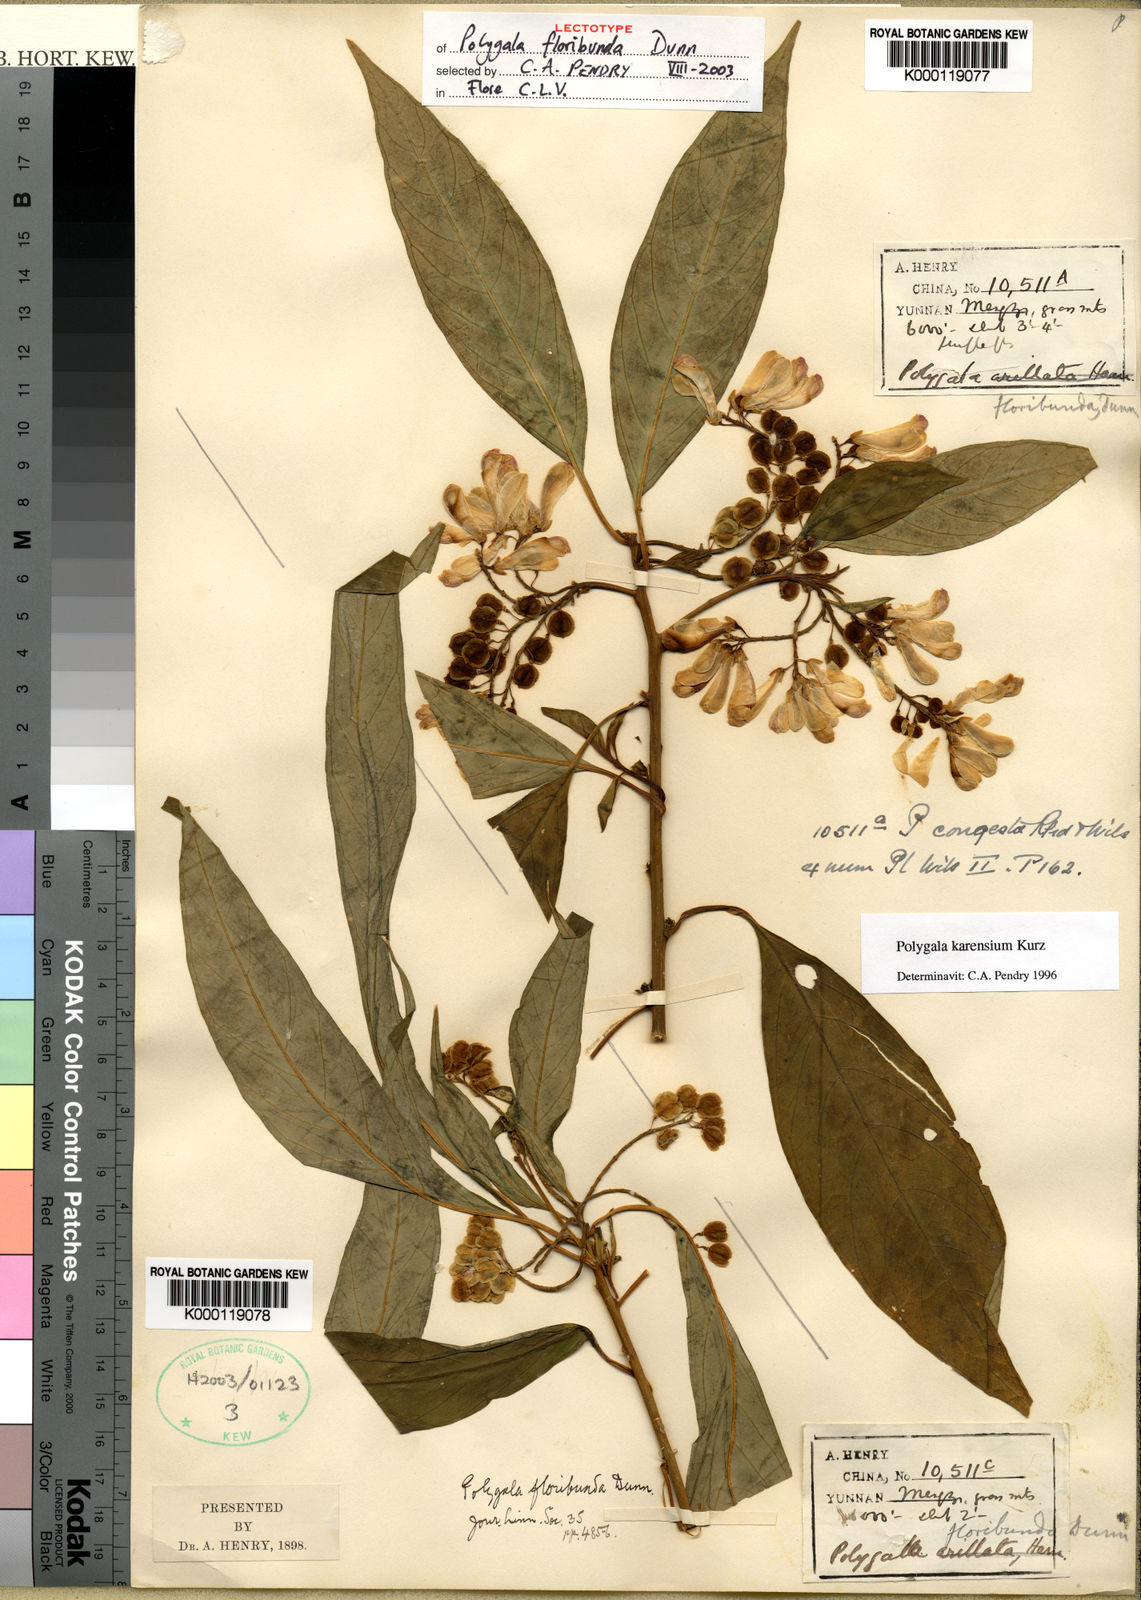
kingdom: Plantae
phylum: Tracheophyta
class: Magnoliopsida
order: Fabales
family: Polygalaceae
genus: Polygala
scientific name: Polygala karensium
